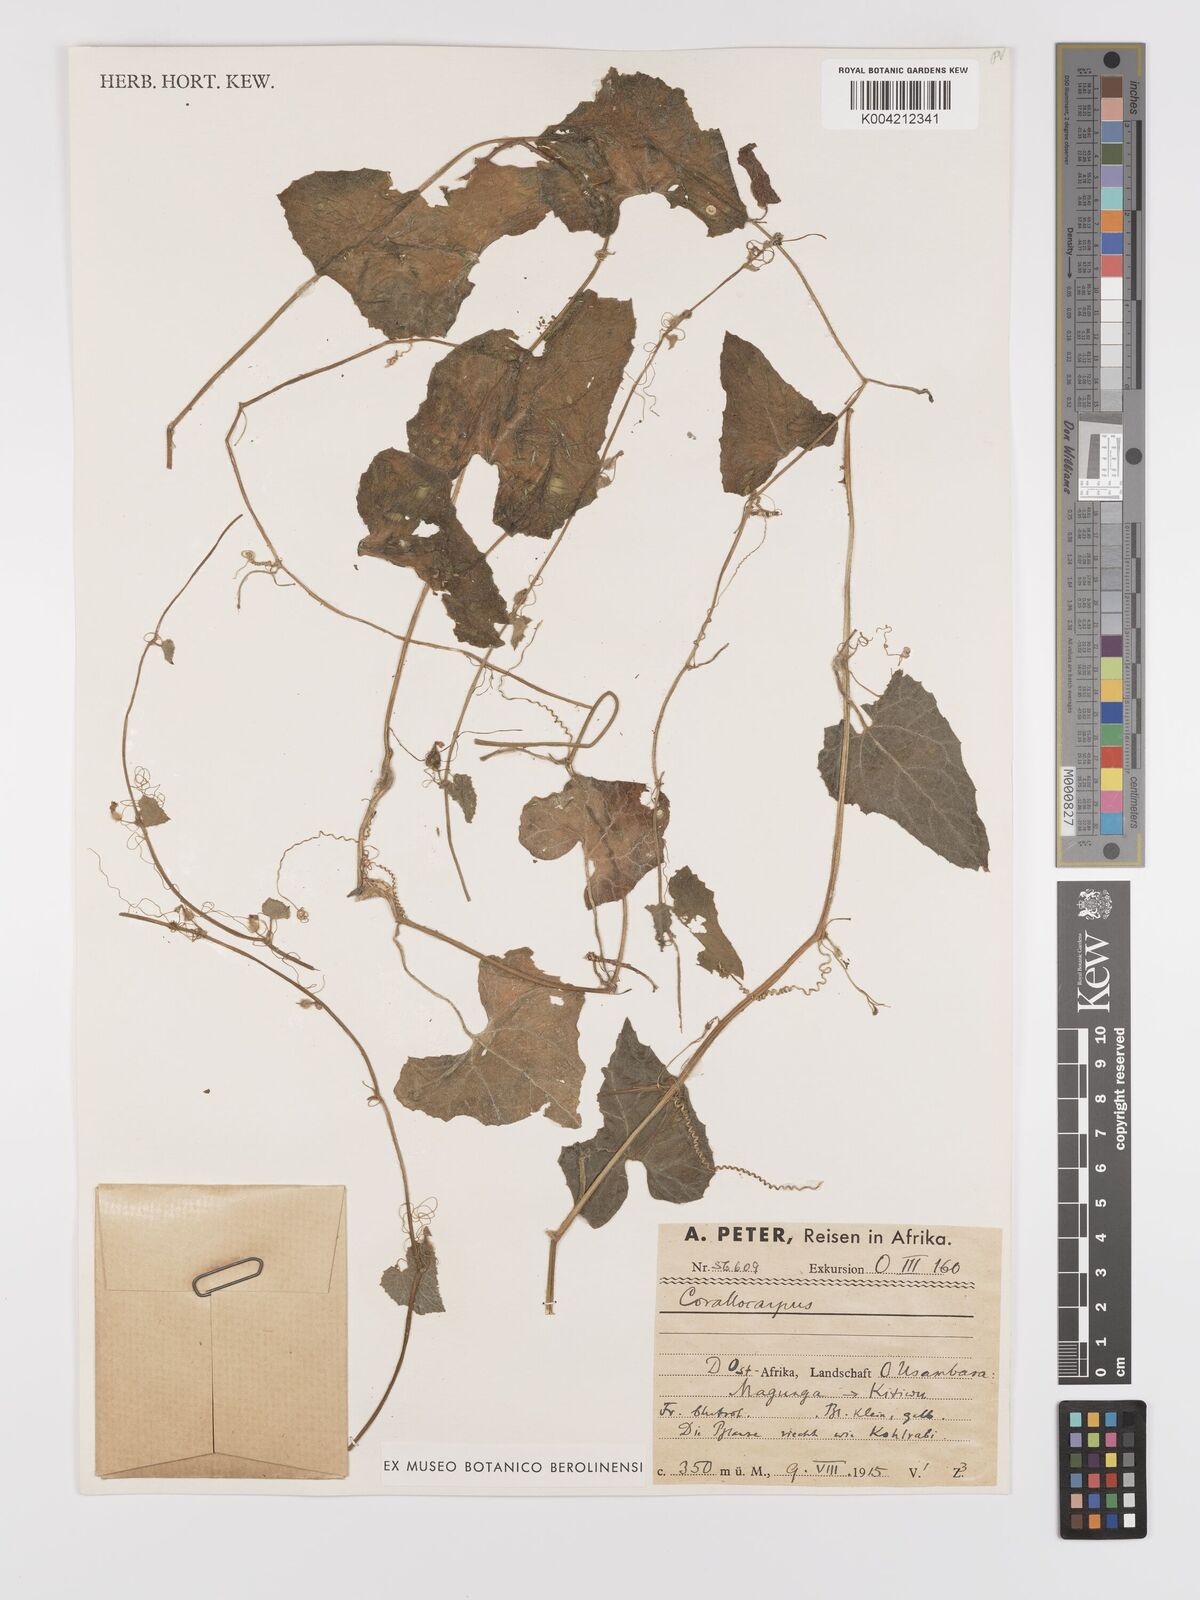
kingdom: Plantae
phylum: Tracheophyta
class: Magnoliopsida
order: Cucurbitales
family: Cucurbitaceae
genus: Kedrostis
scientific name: Kedrostis foetidissima
